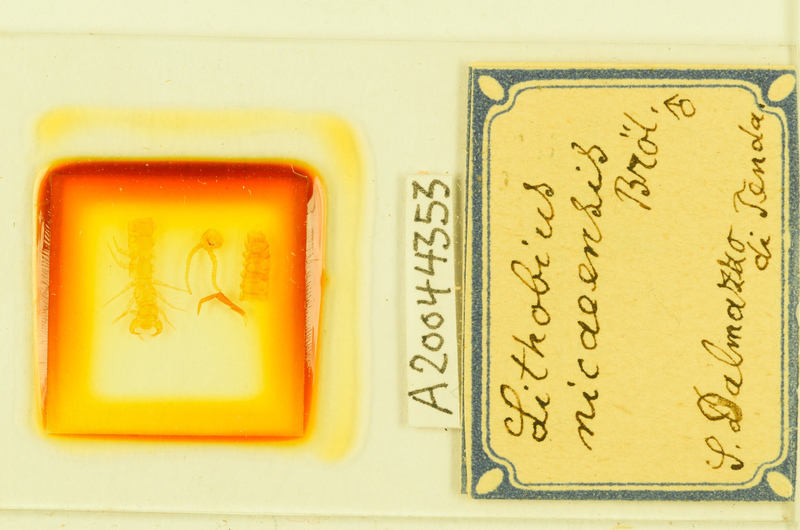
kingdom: Animalia
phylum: Arthropoda
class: Chilopoda
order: Lithobiomorpha
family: Lithobiidae
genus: Lithobius
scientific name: Lithobius tylopus
